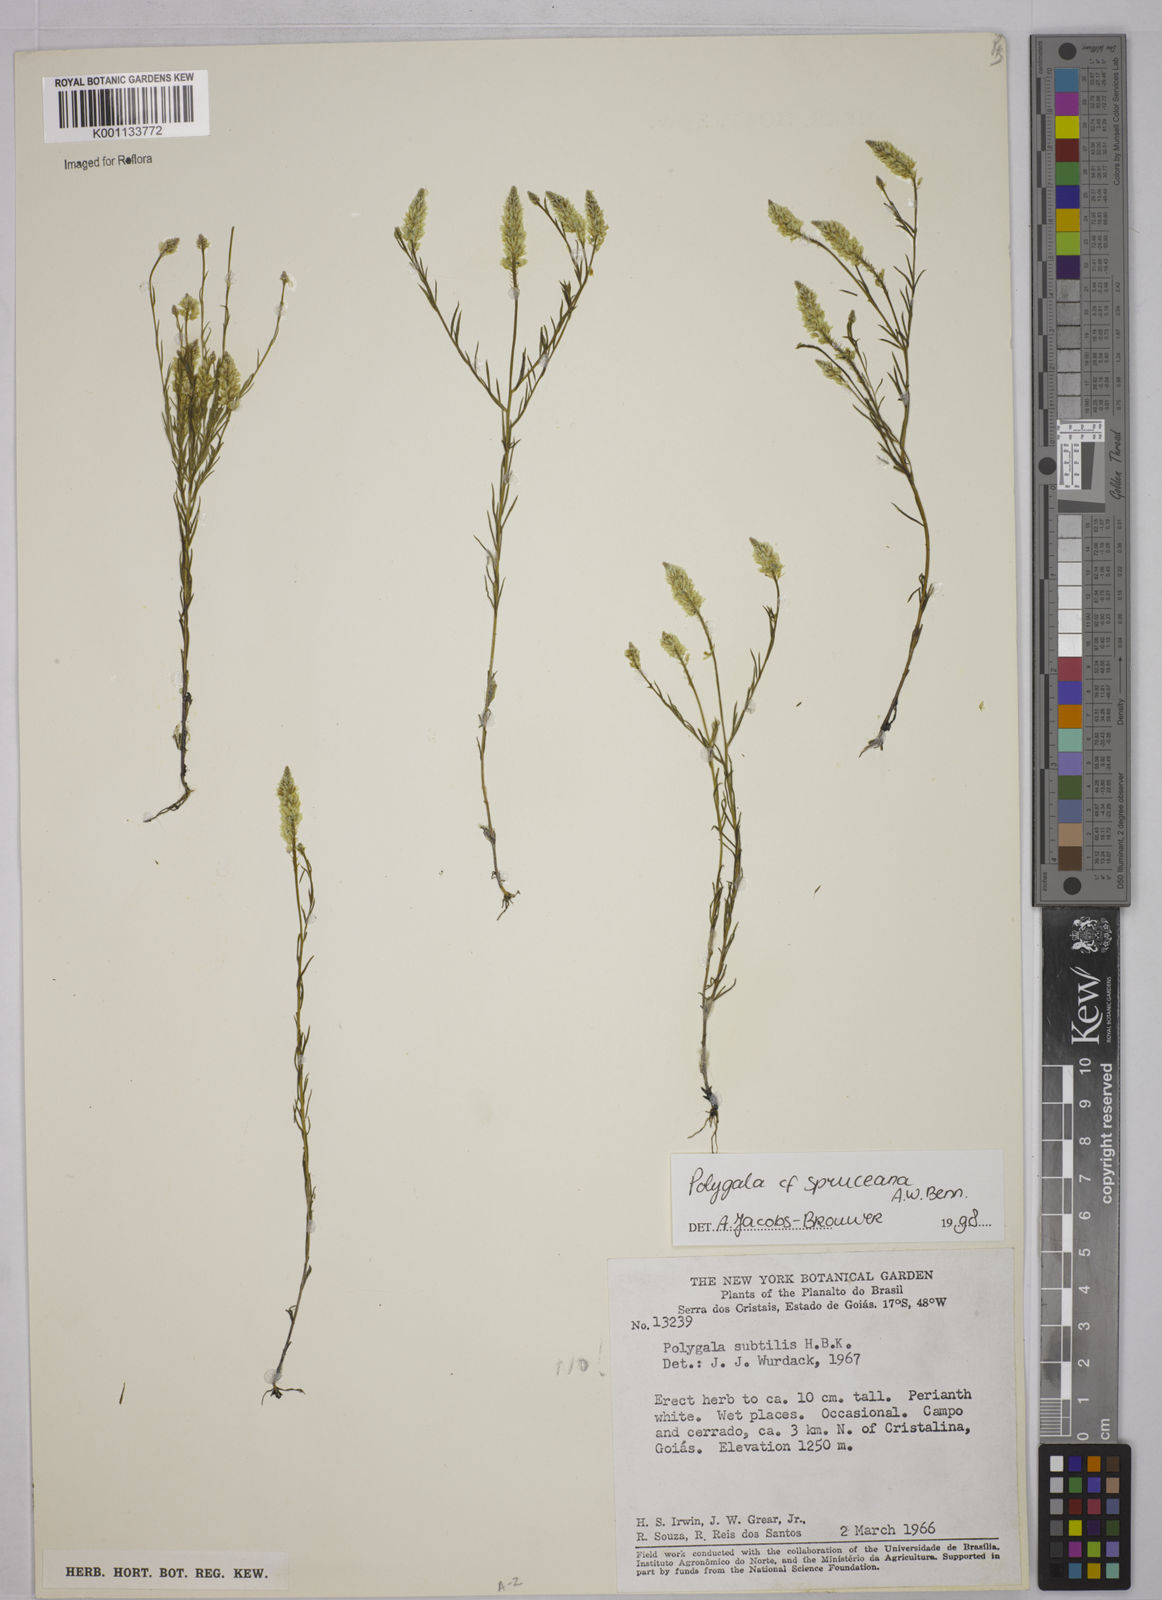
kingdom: Plantae
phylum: Tracheophyta
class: Magnoliopsida
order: Fabales
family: Polygalaceae
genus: Polygala
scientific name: Polygala celosioides
